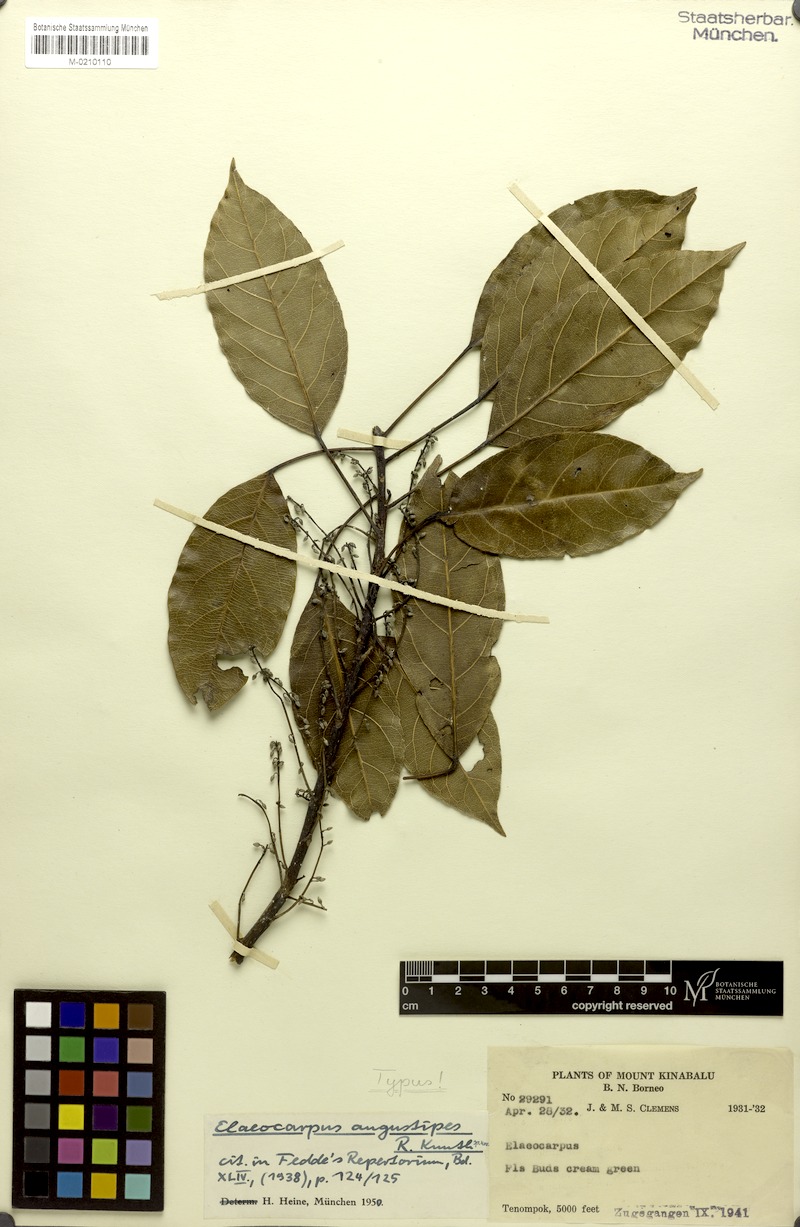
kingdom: Plantae
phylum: Tracheophyta
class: Magnoliopsida
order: Oxalidales
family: Elaeocarpaceae
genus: Elaeocarpus
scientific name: Elaeocarpus angustipes
